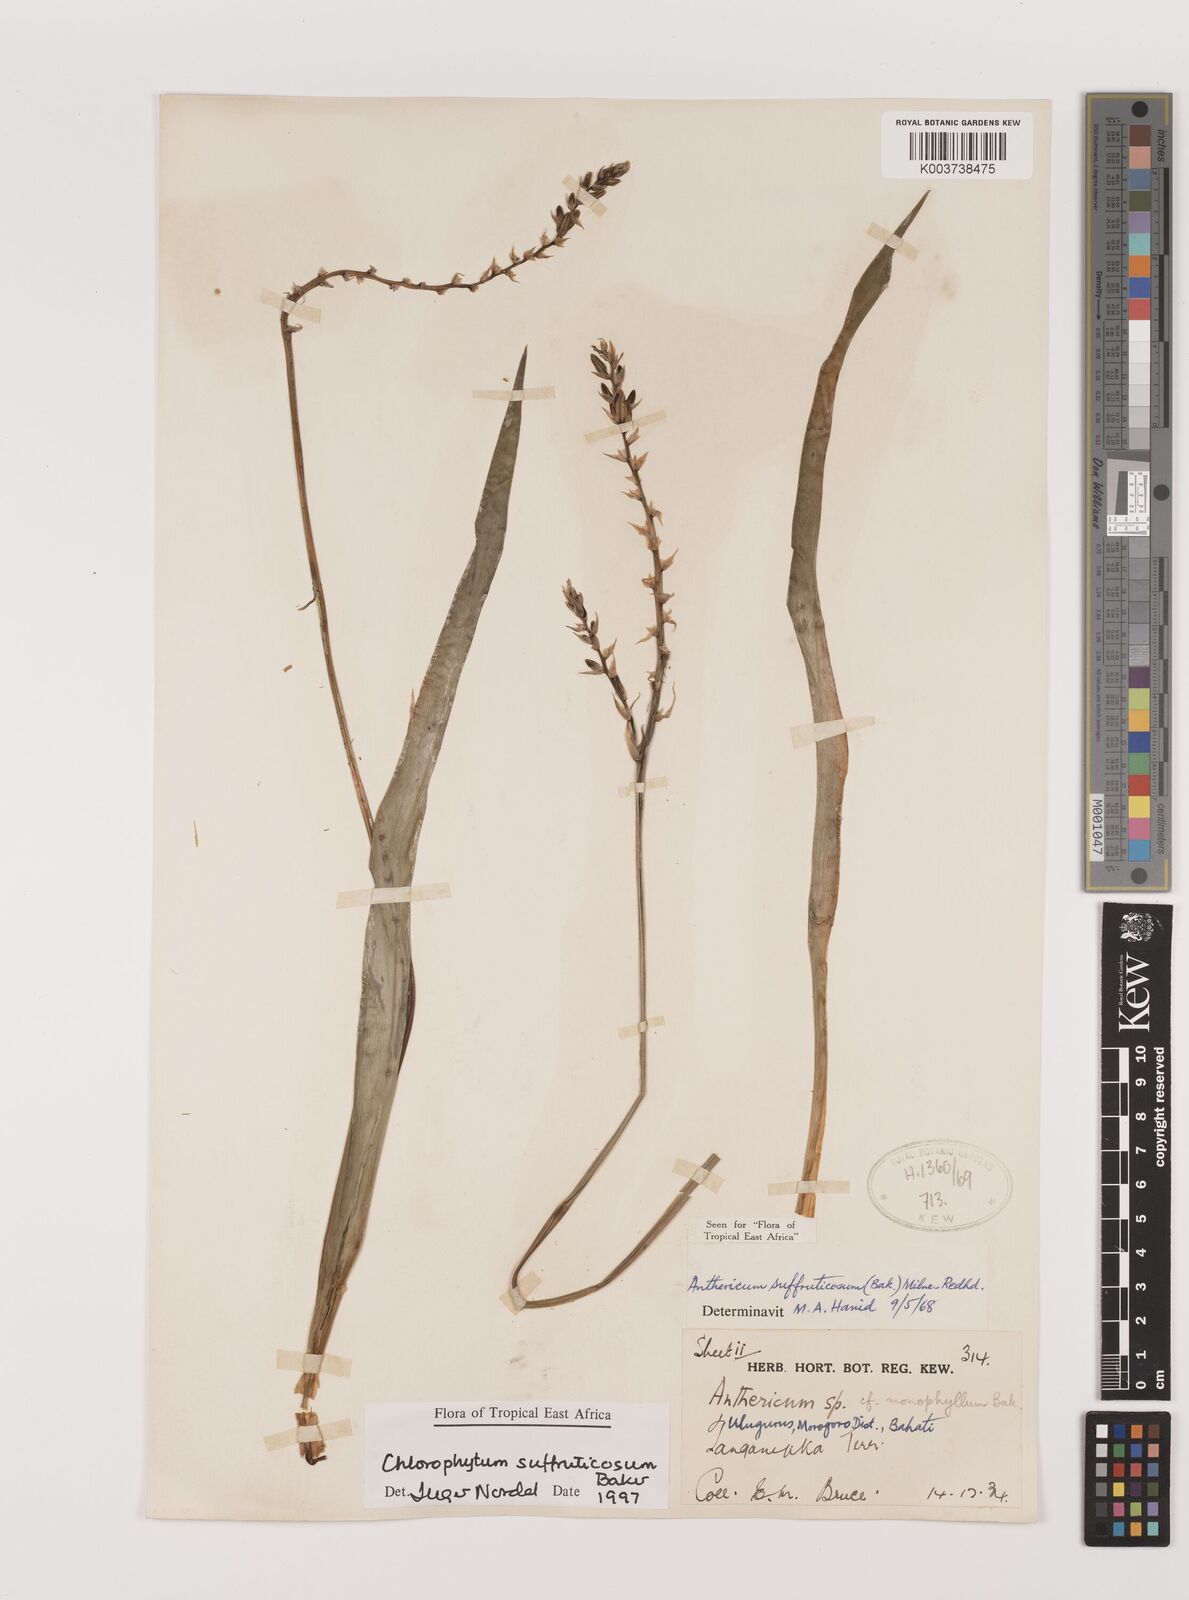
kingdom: Plantae
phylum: Tracheophyta
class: Liliopsida
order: Asparagales
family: Asparagaceae
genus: Chlorophytum
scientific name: Chlorophytum suffruticosum
